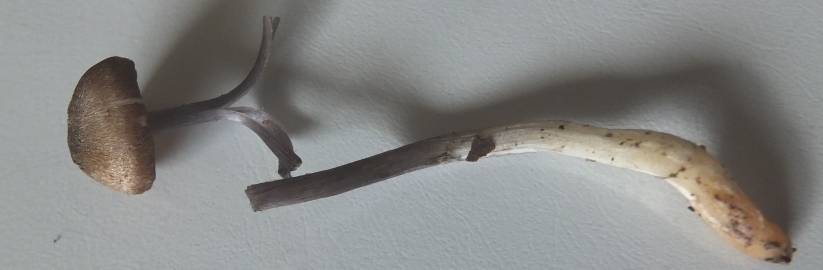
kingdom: Fungi
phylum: Basidiomycota
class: Agaricomycetes
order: Agaricales
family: Inocybaceae
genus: Inocybe
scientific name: Inocybe cincinnata
